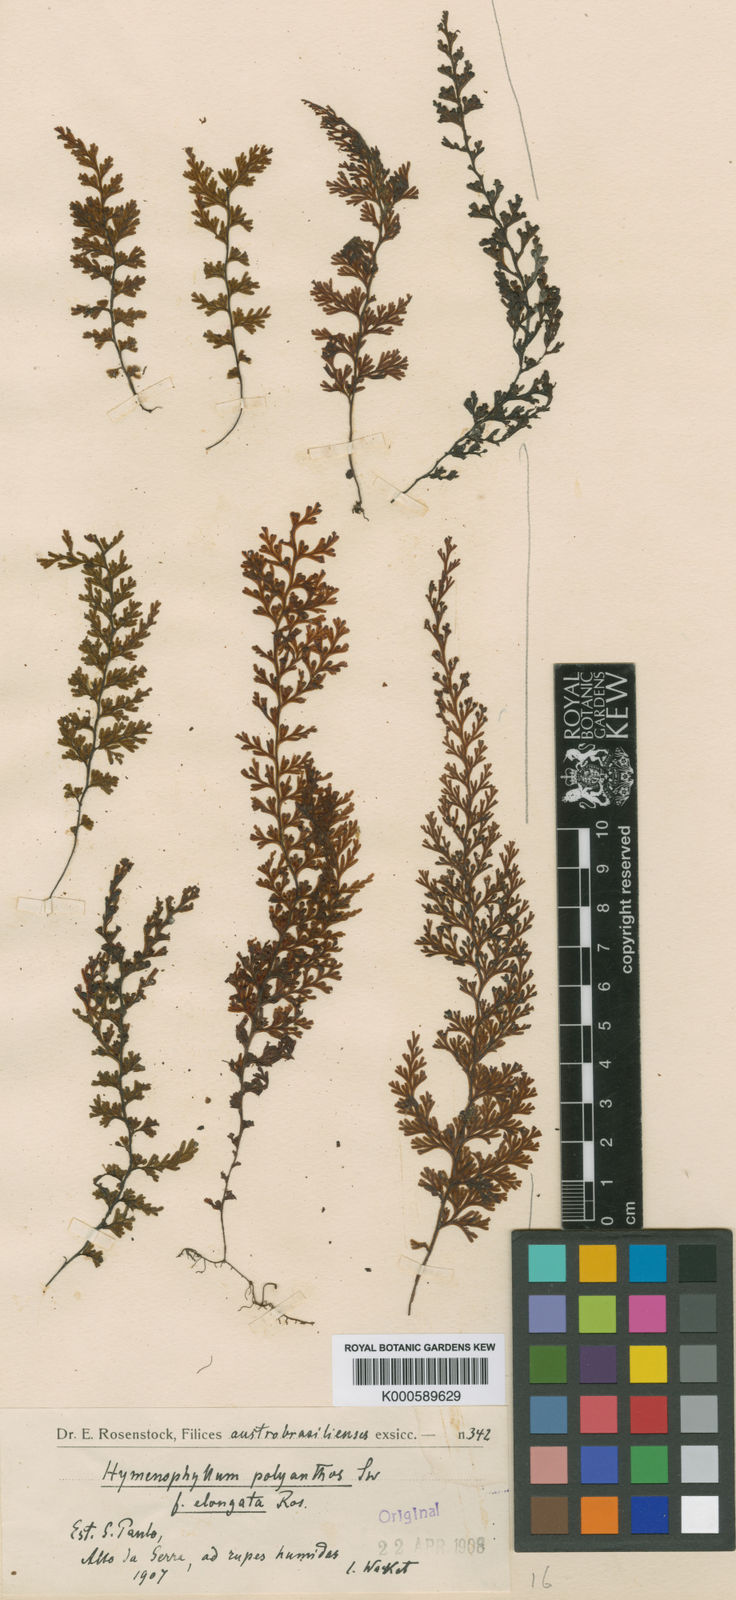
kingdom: Plantae
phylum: Tracheophyta
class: Polypodiopsida
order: Hymenophyllales
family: Hymenophyllaceae
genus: Hymenophyllum
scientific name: Hymenophyllum polyanthos
